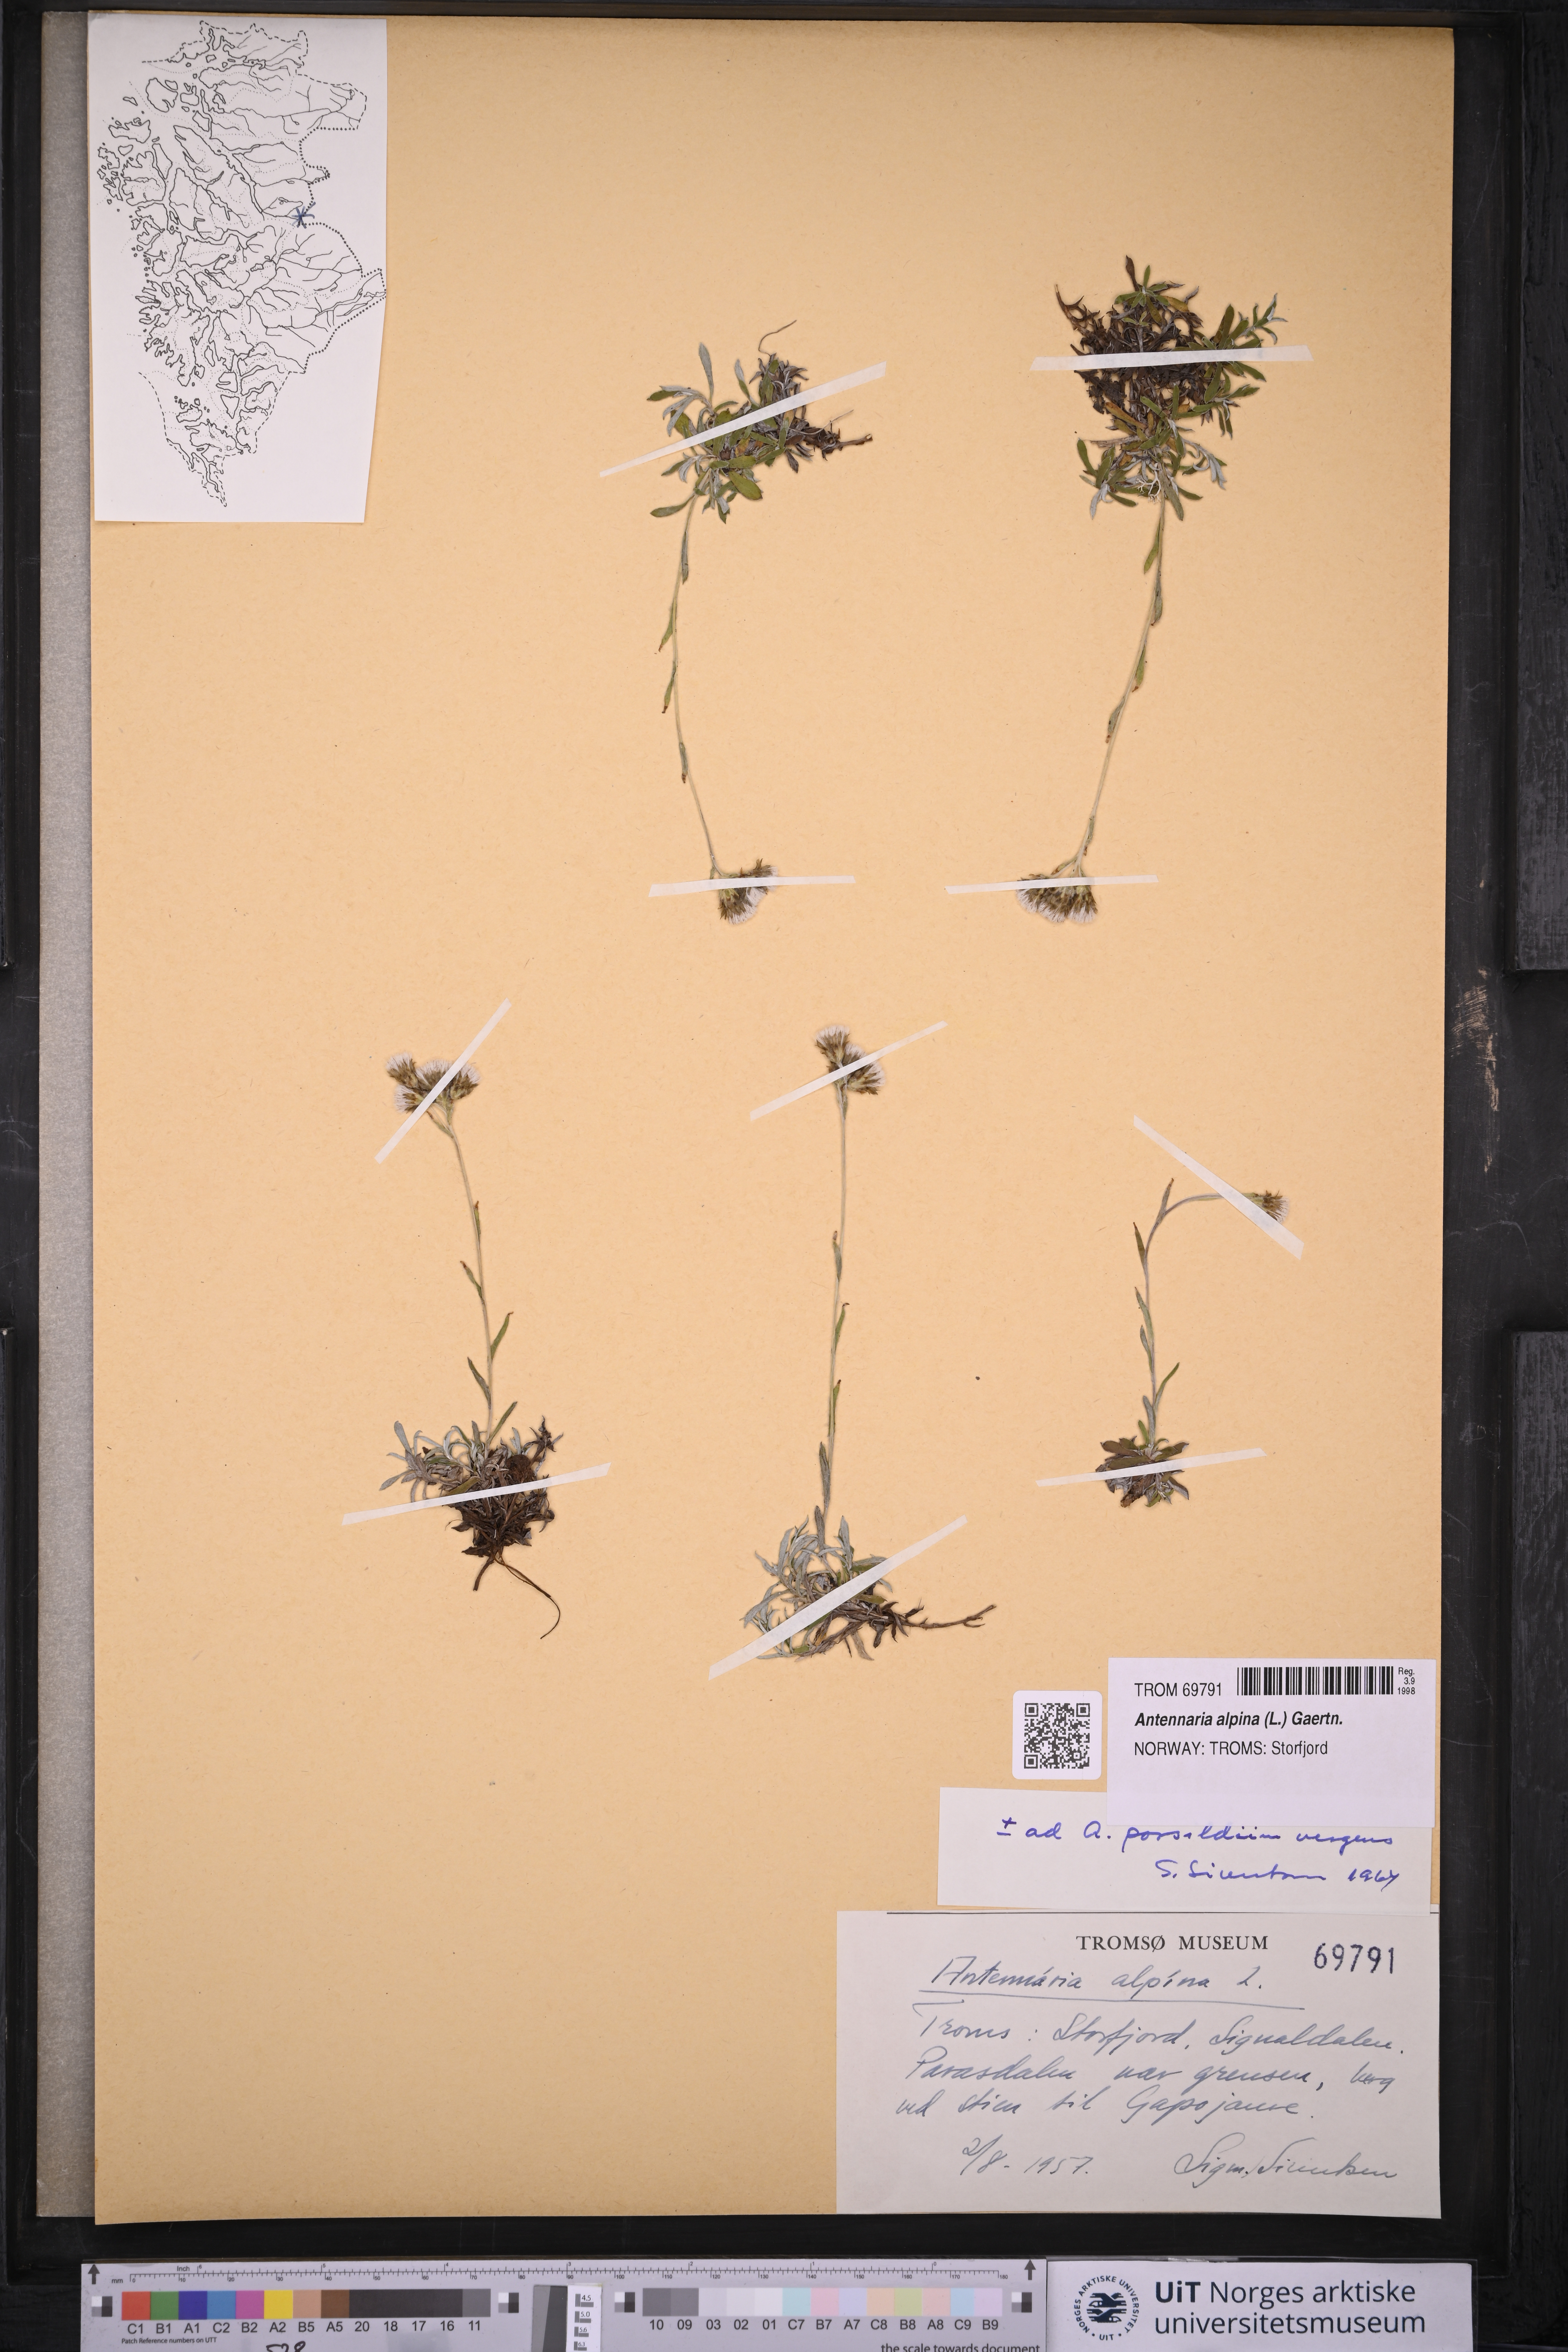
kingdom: Plantae
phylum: Tracheophyta
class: Magnoliopsida
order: Asterales
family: Asteraceae
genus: Antennaria
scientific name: Antennaria alpina
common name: Alpine pussytoes
